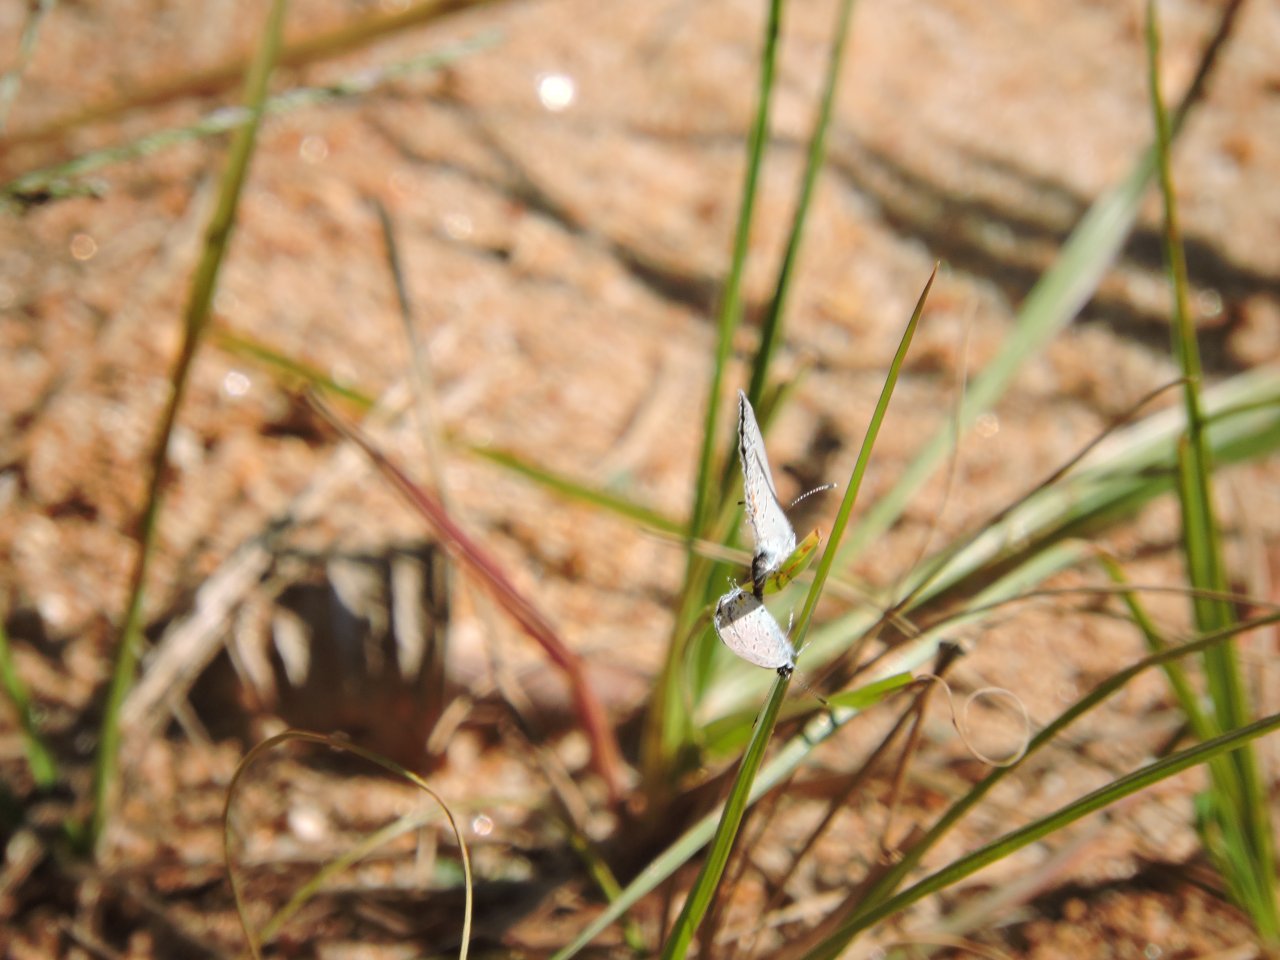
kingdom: Animalia
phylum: Arthropoda
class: Insecta
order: Lepidoptera
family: Lycaenidae
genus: Elkalyce
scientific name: Elkalyce comyntas
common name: Eastern Tailed-Blue
